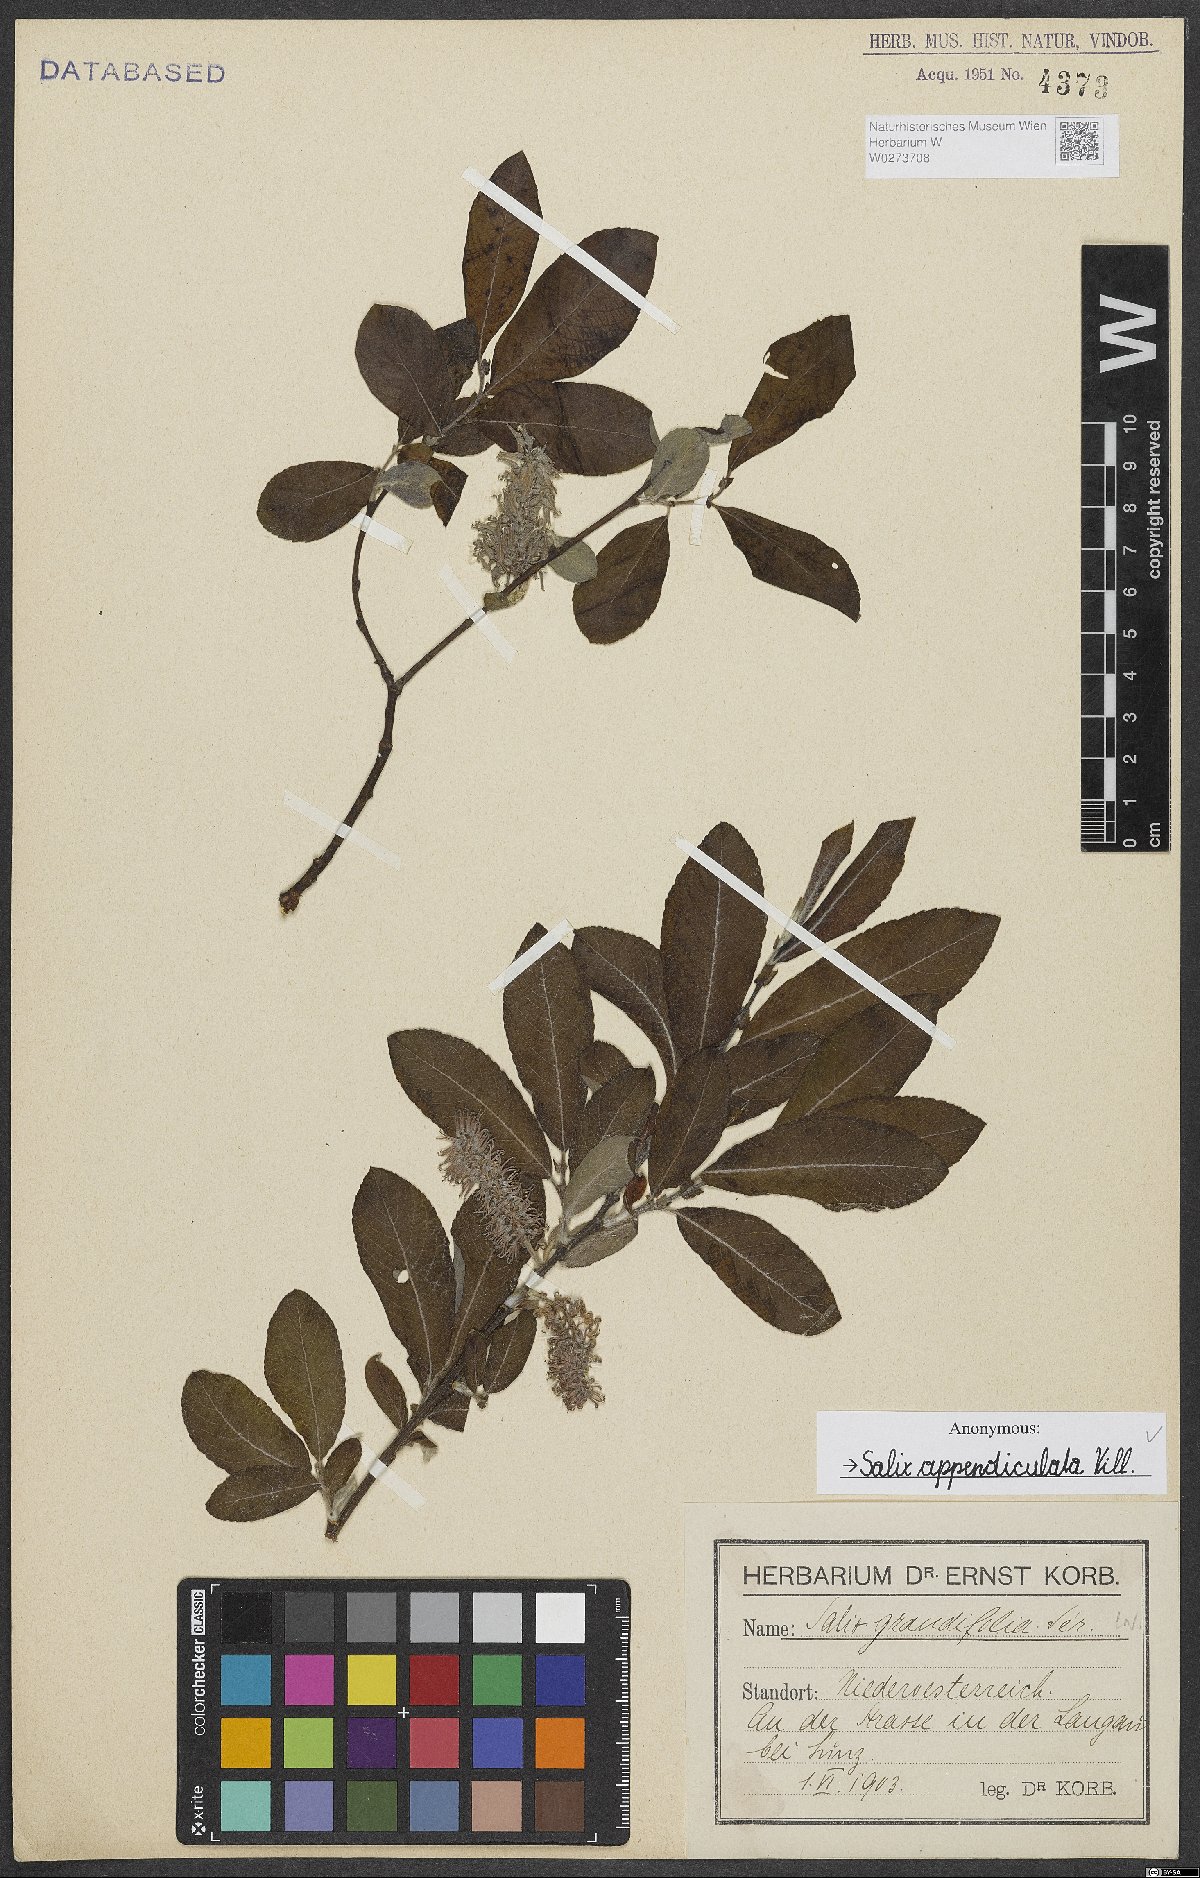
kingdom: Plantae
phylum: Tracheophyta
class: Magnoliopsida
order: Malpighiales
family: Salicaceae
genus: Salix
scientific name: Salix appendiculata
